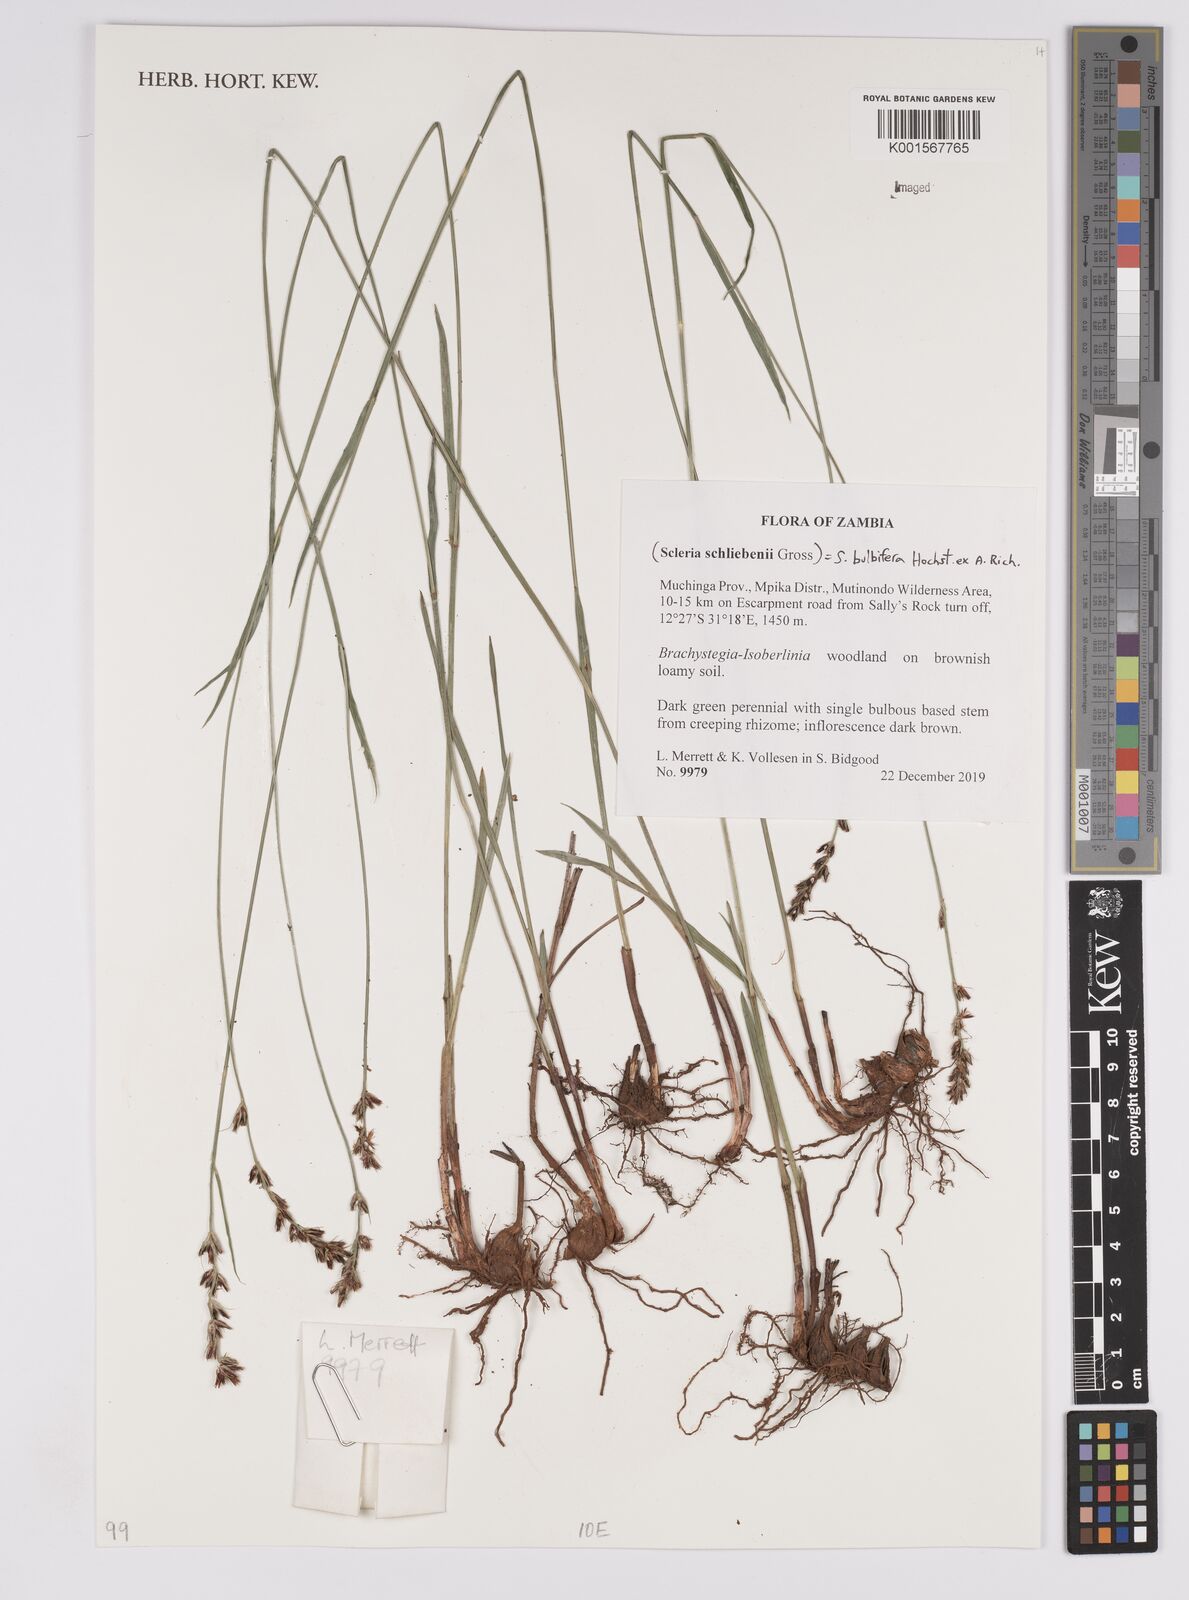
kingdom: Plantae
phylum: Tracheophyta
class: Liliopsida
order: Poales
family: Cyperaceae
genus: Scleria
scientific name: Scleria bulbifera
